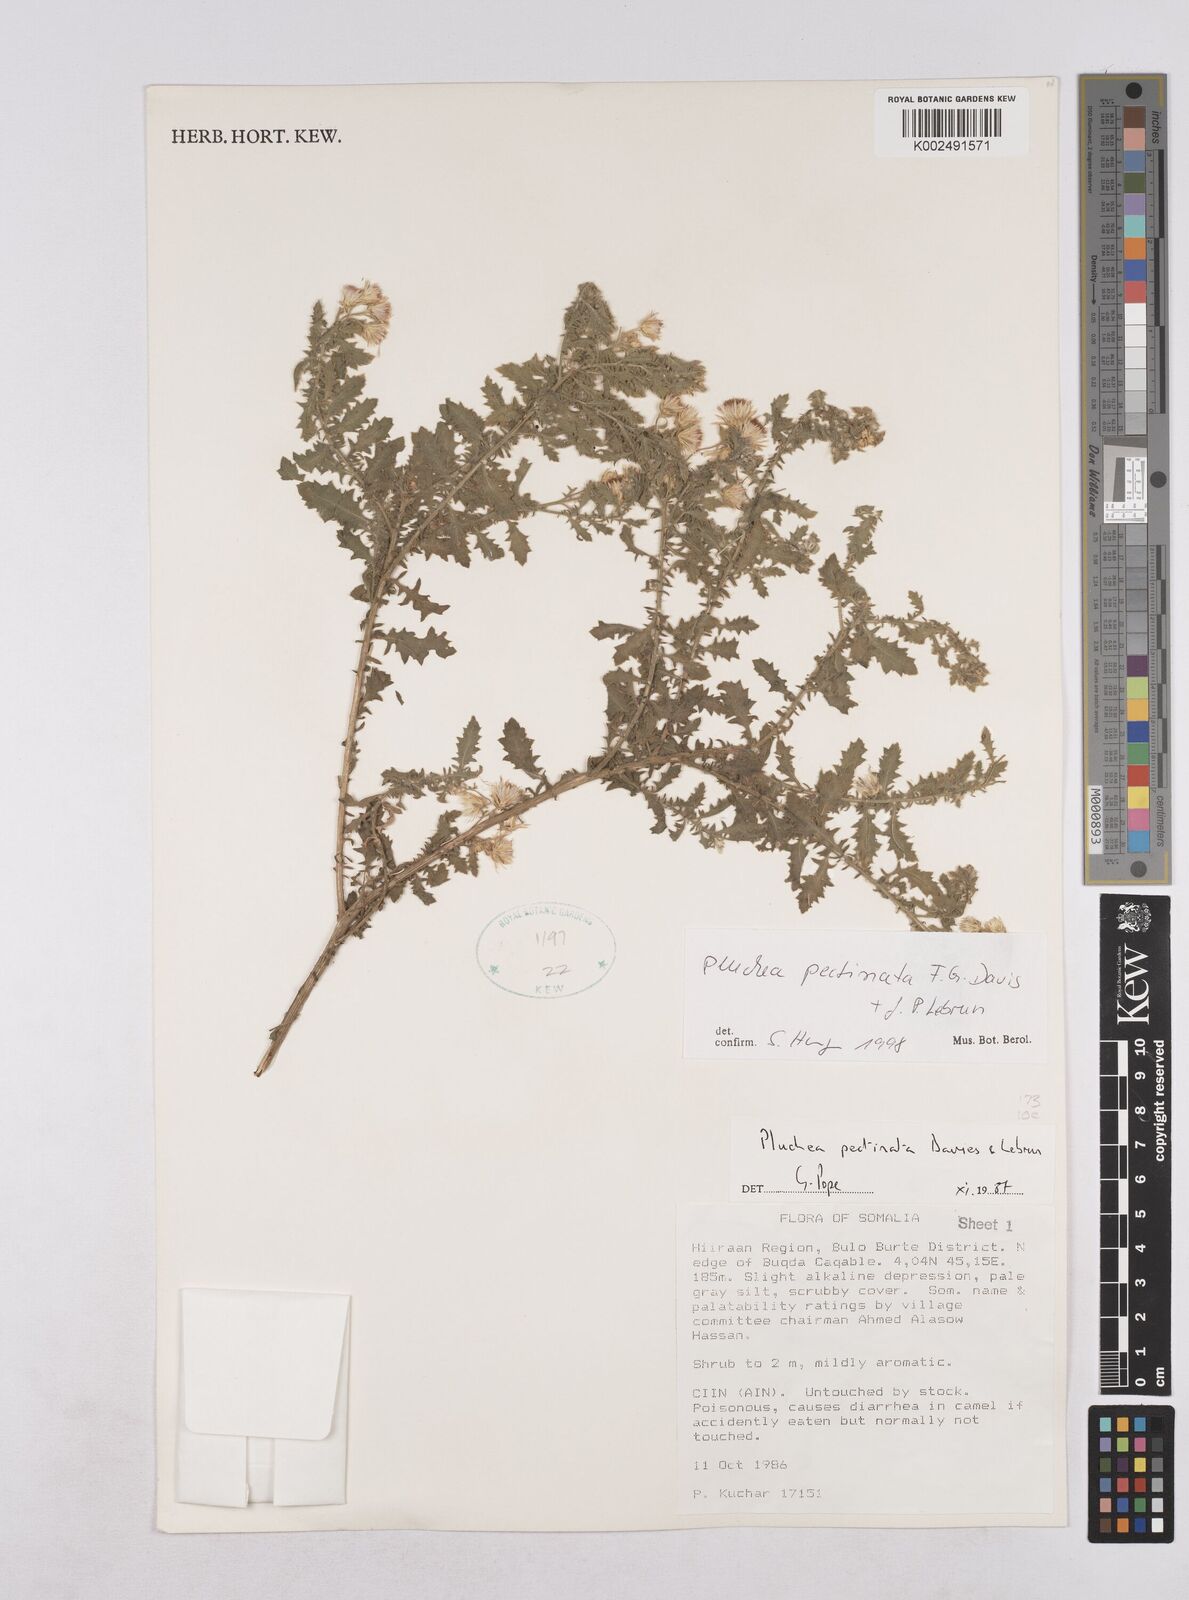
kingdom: Plantae
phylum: Tracheophyta
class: Magnoliopsida
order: Asterales
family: Asteraceae
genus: Pluchea
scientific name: Pluchea somaliensis
